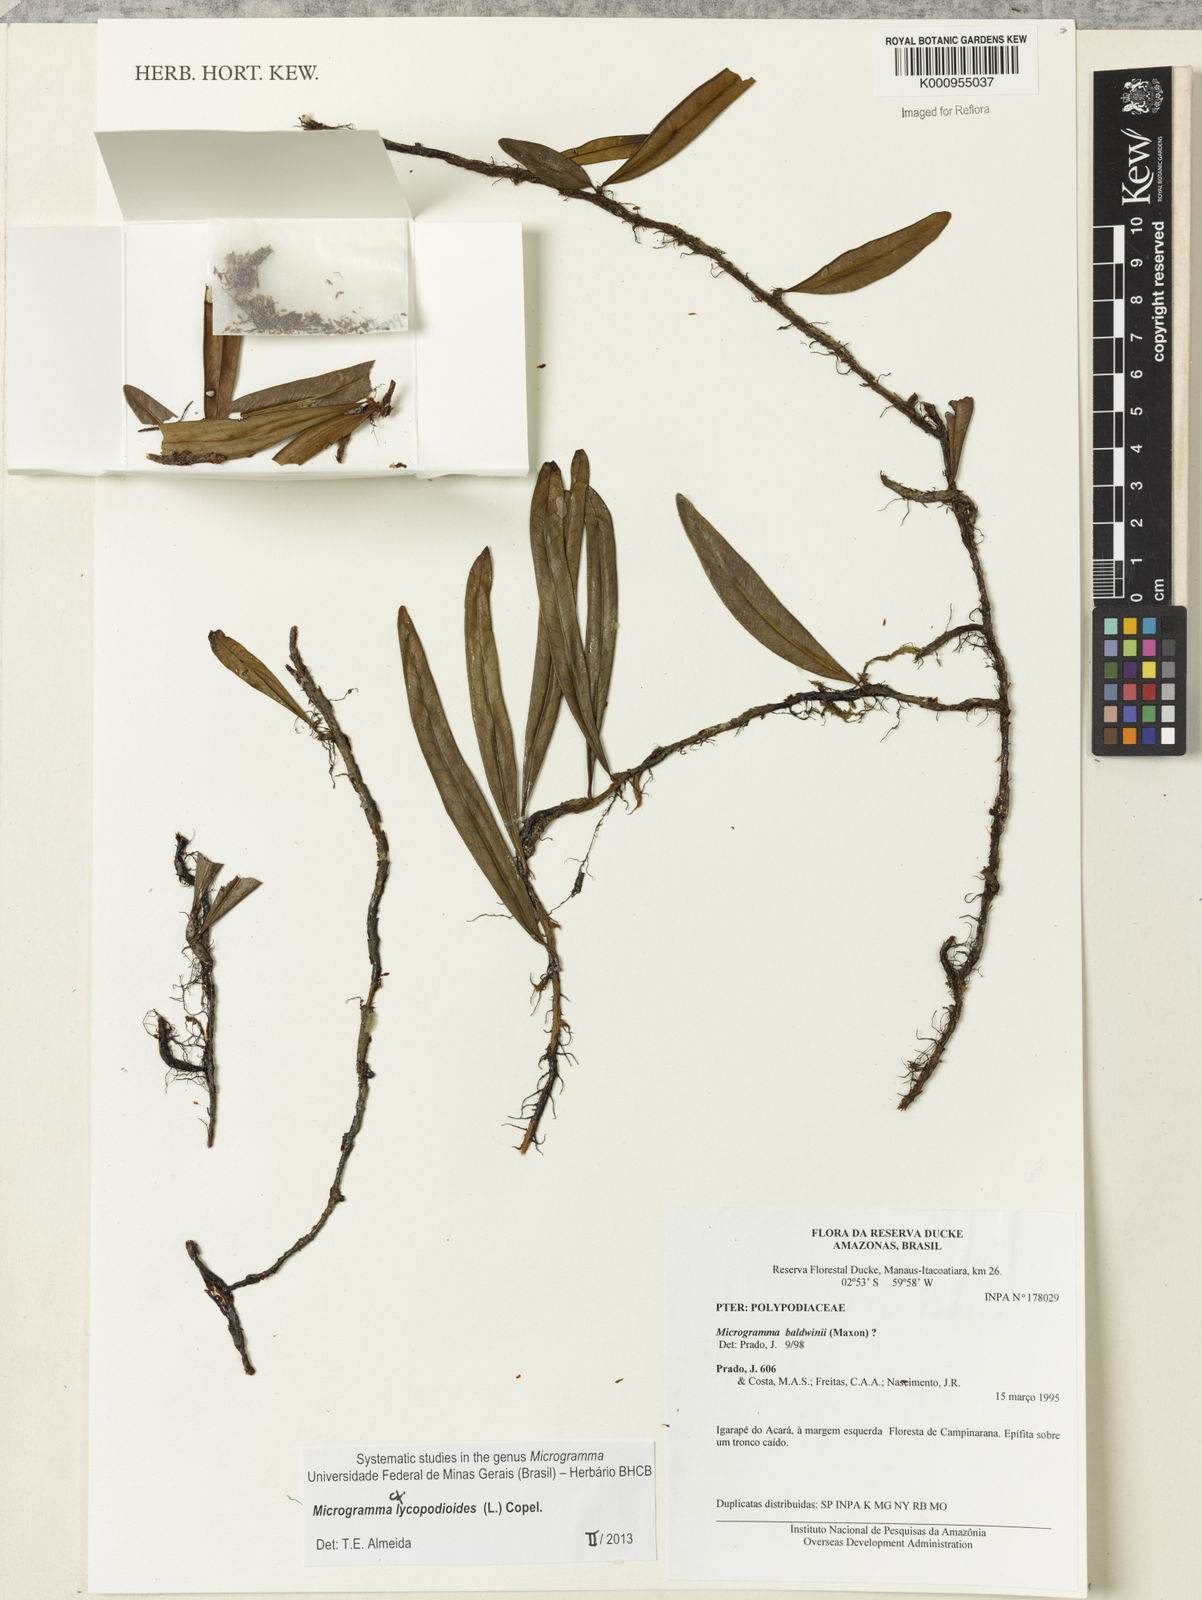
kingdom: Plantae
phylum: Tracheophyta
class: Polypodiopsida
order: Polypodiales
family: Polypodiaceae
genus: Microgramma
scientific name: Microgramma lycopodioides
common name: Bastard catclaw
